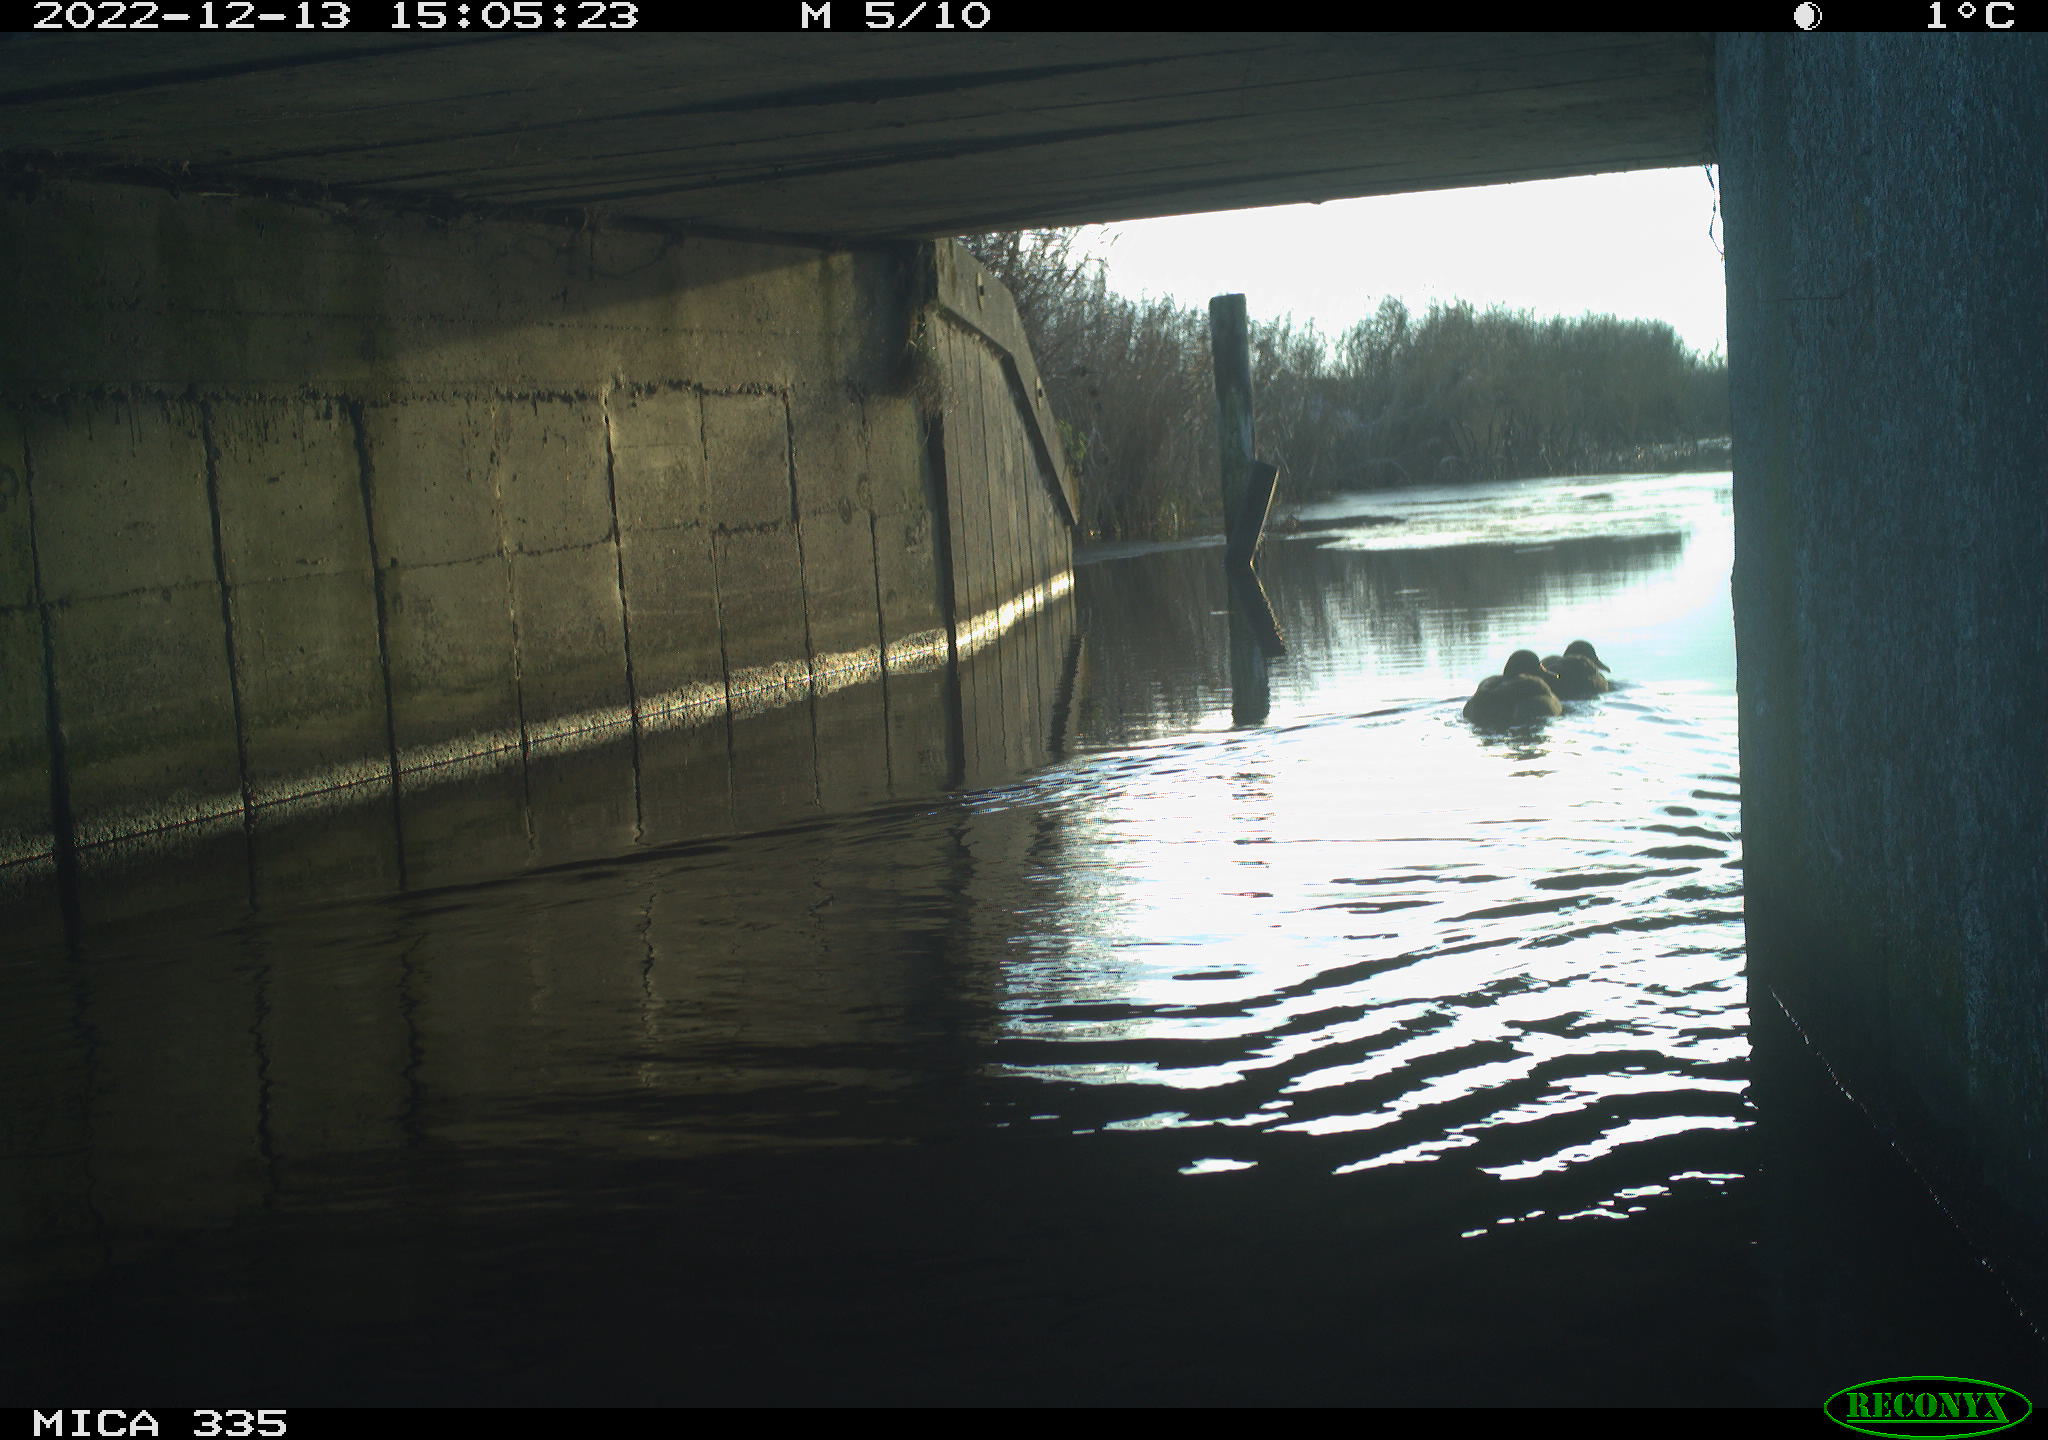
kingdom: Animalia
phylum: Chordata
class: Aves
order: Anseriformes
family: Anatidae
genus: Anas
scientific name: Anas
